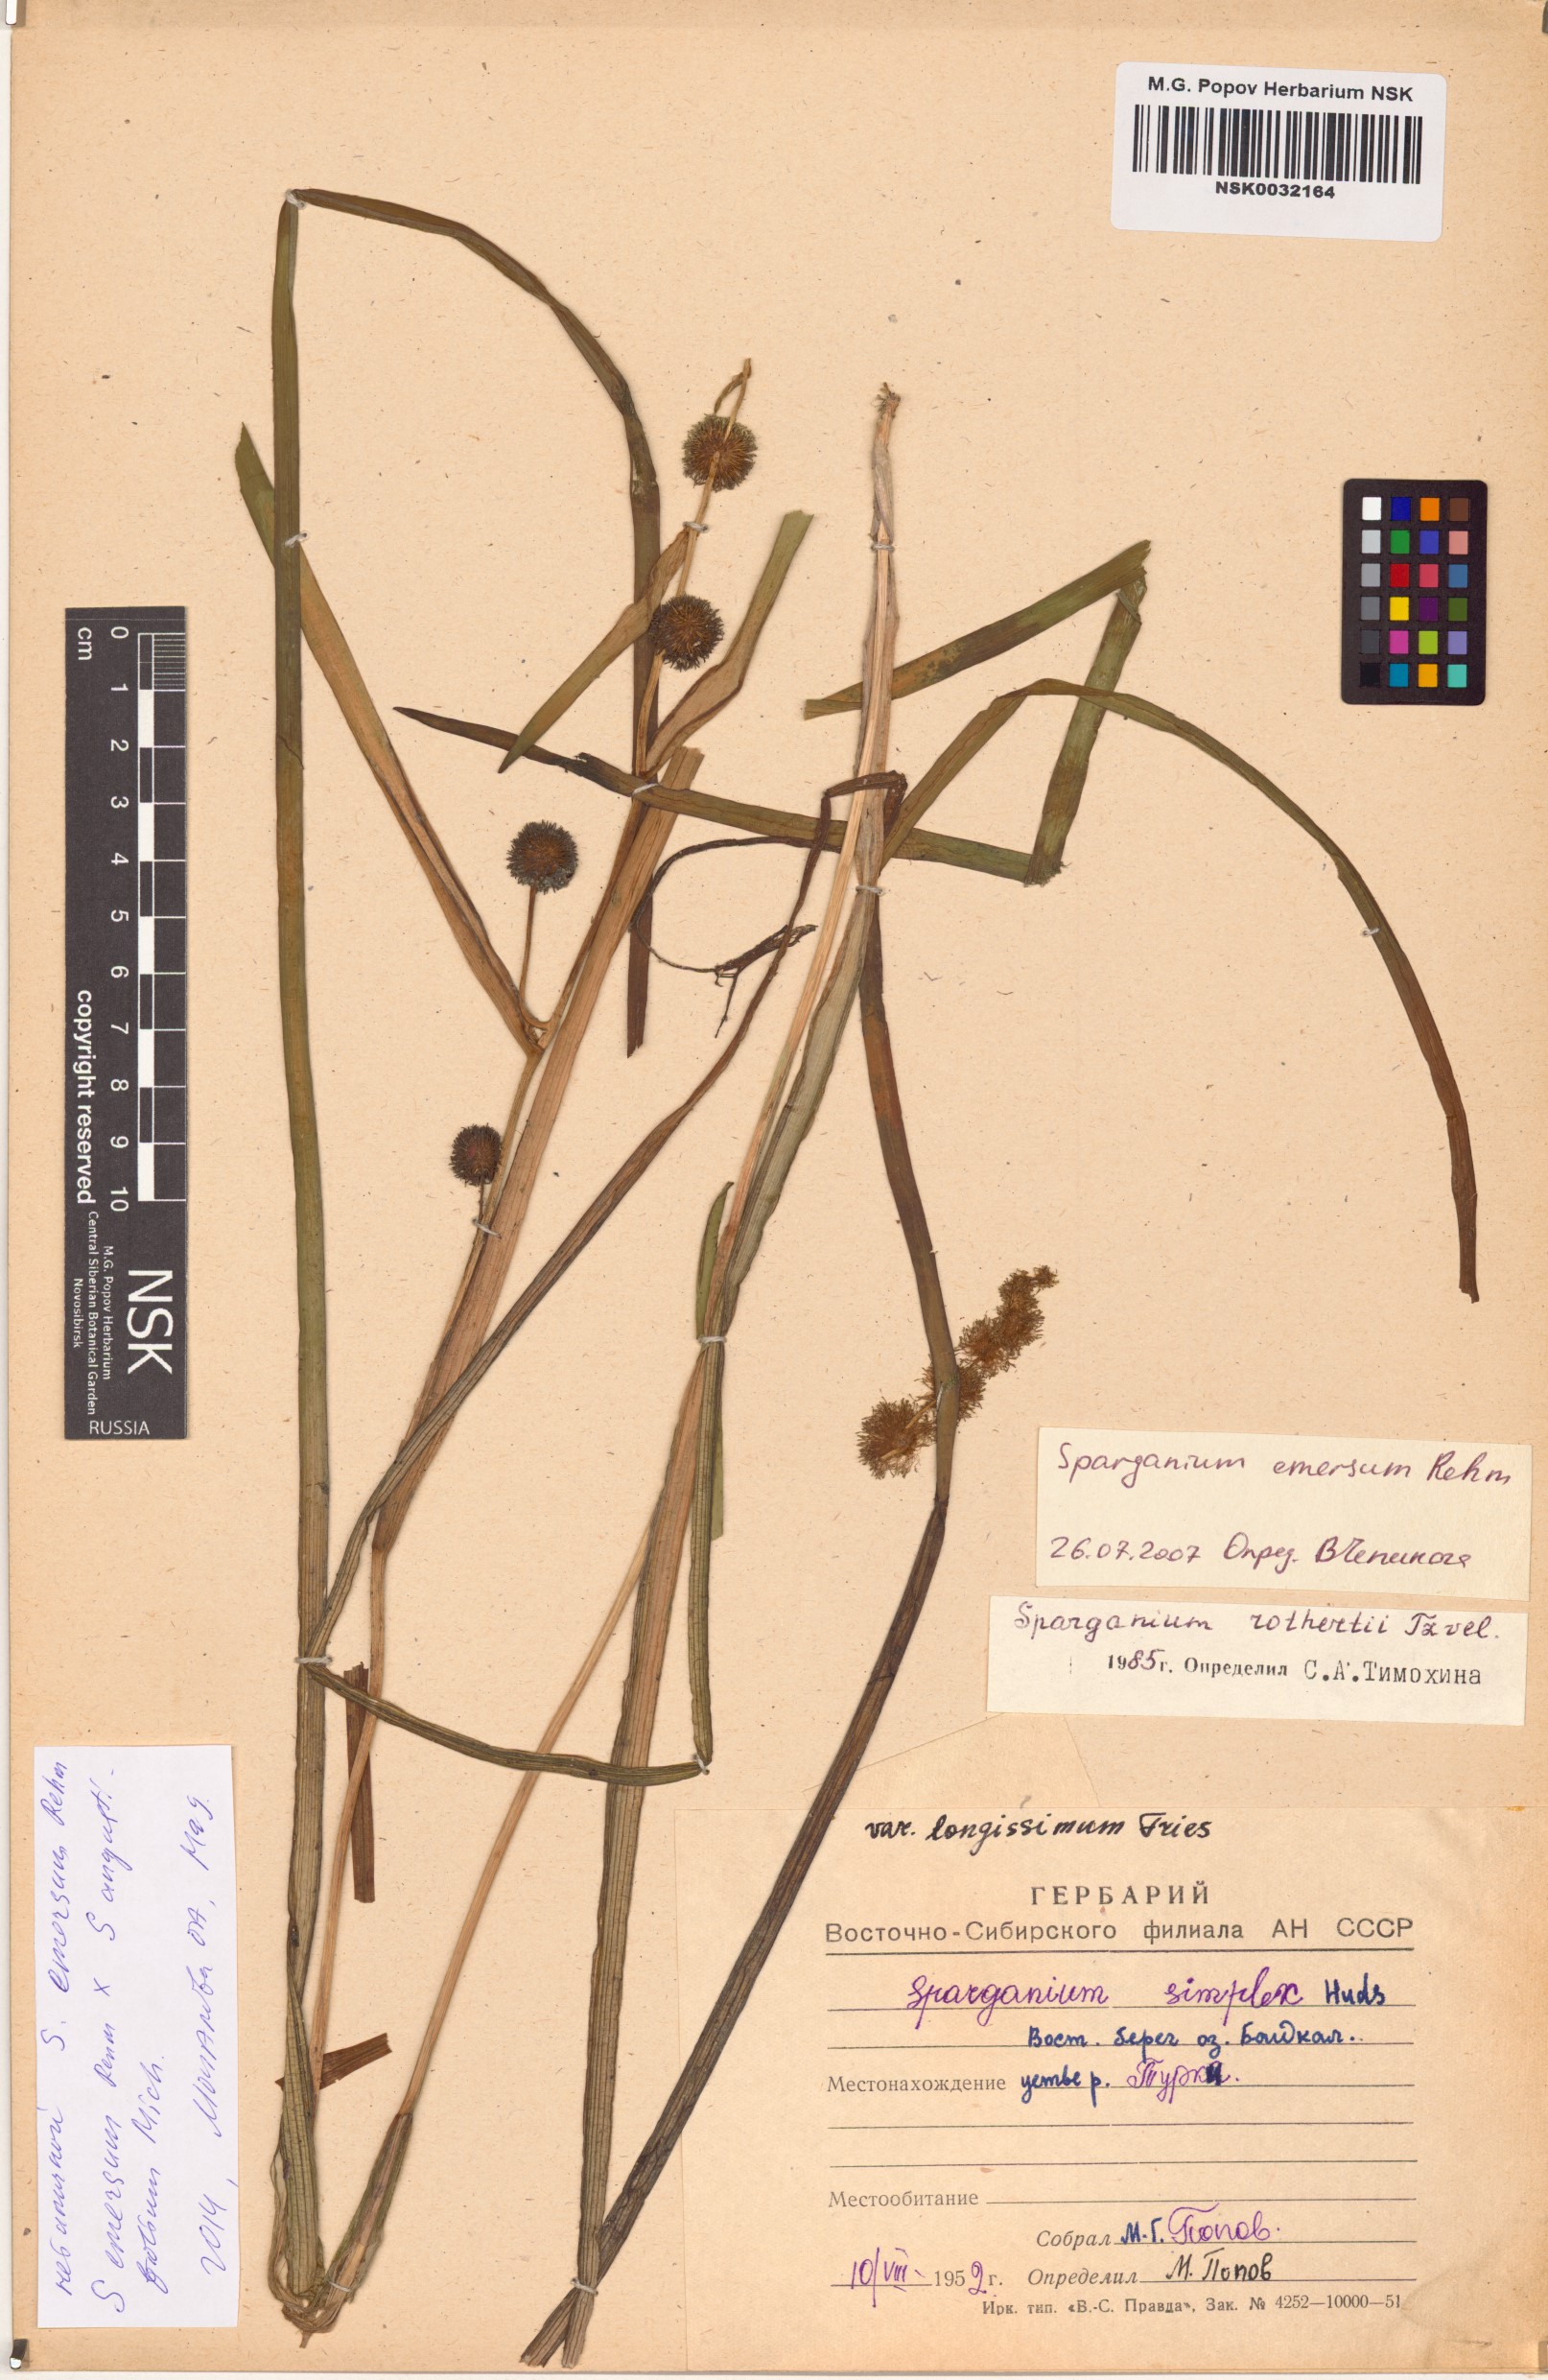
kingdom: Plantae
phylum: Tracheophyta
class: Liliopsida
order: Poales
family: Typhaceae
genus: Sparganium
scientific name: Sparganium emersum
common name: Unbranched bur-reed
